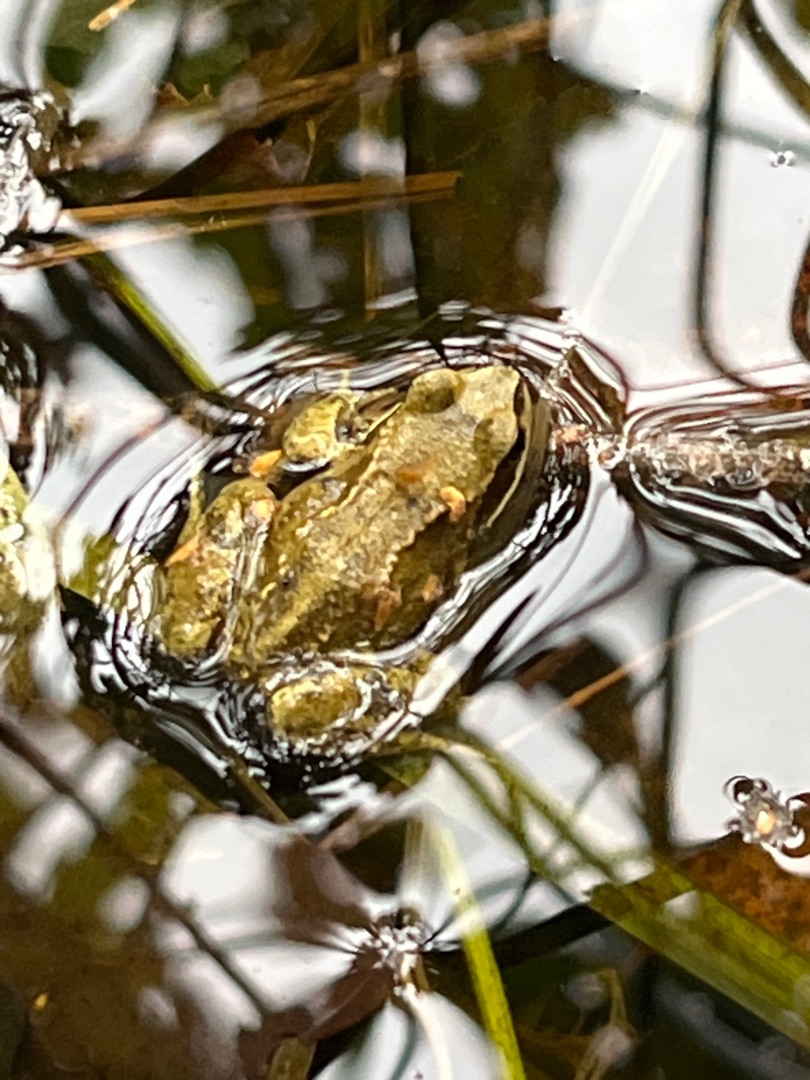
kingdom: Animalia
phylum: Chordata
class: Amphibia
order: Anura
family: Ranidae
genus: Rana
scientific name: Rana temporaria
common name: Butsnudet frø
